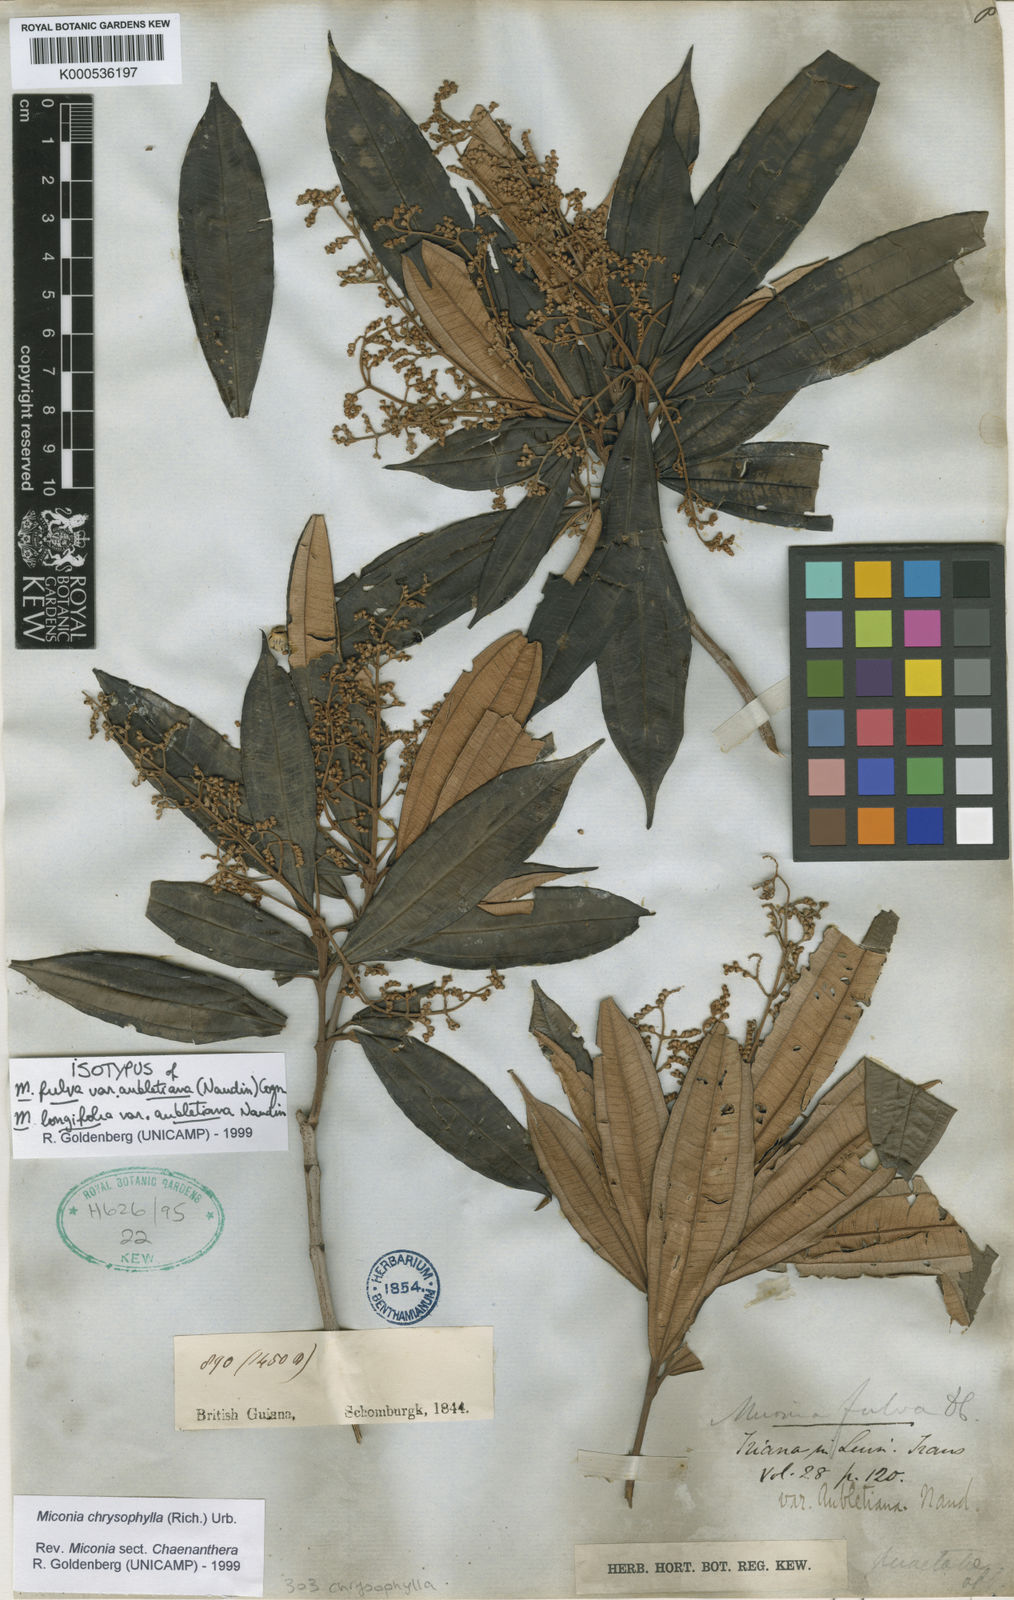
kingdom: Plantae
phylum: Tracheophyta
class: Magnoliopsida
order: Myrtales
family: Melastomataceae
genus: Miconia
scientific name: Miconia chrysophylla
